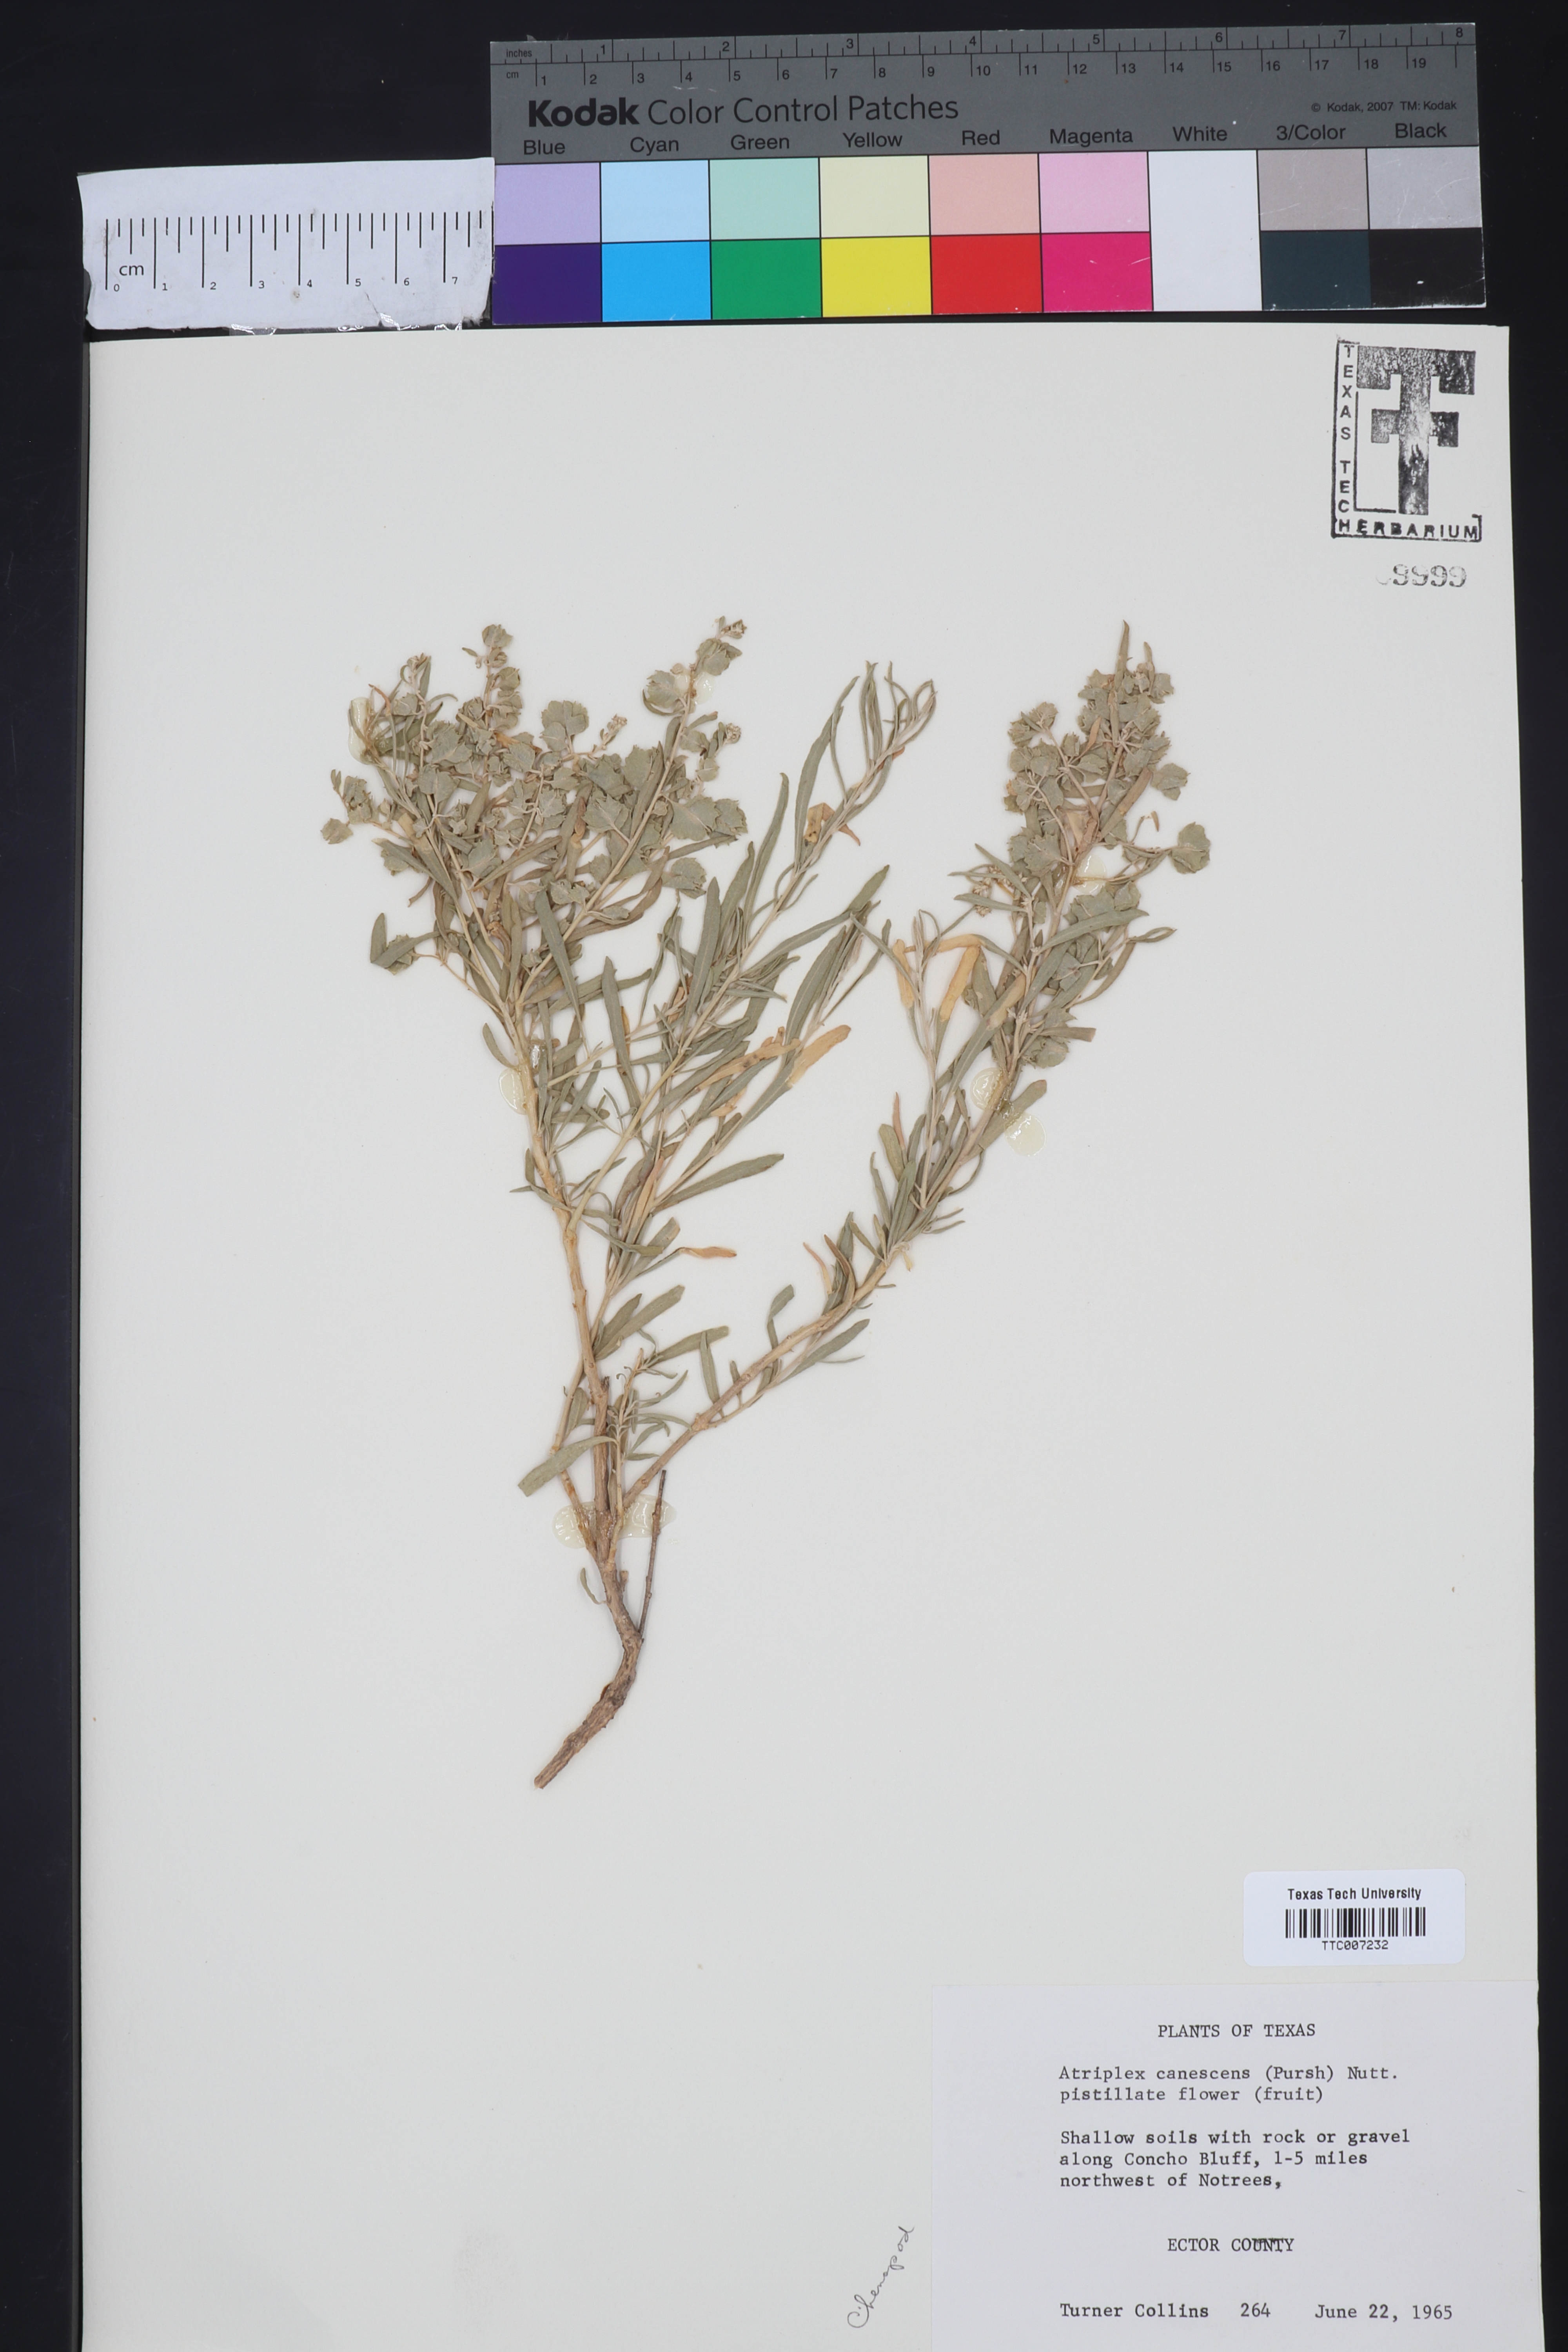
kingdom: Plantae
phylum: Tracheophyta
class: Magnoliopsida
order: Caryophyllales
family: Amaranthaceae
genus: Atriplex
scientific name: Atriplex canescens
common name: Four-wing saltbush
